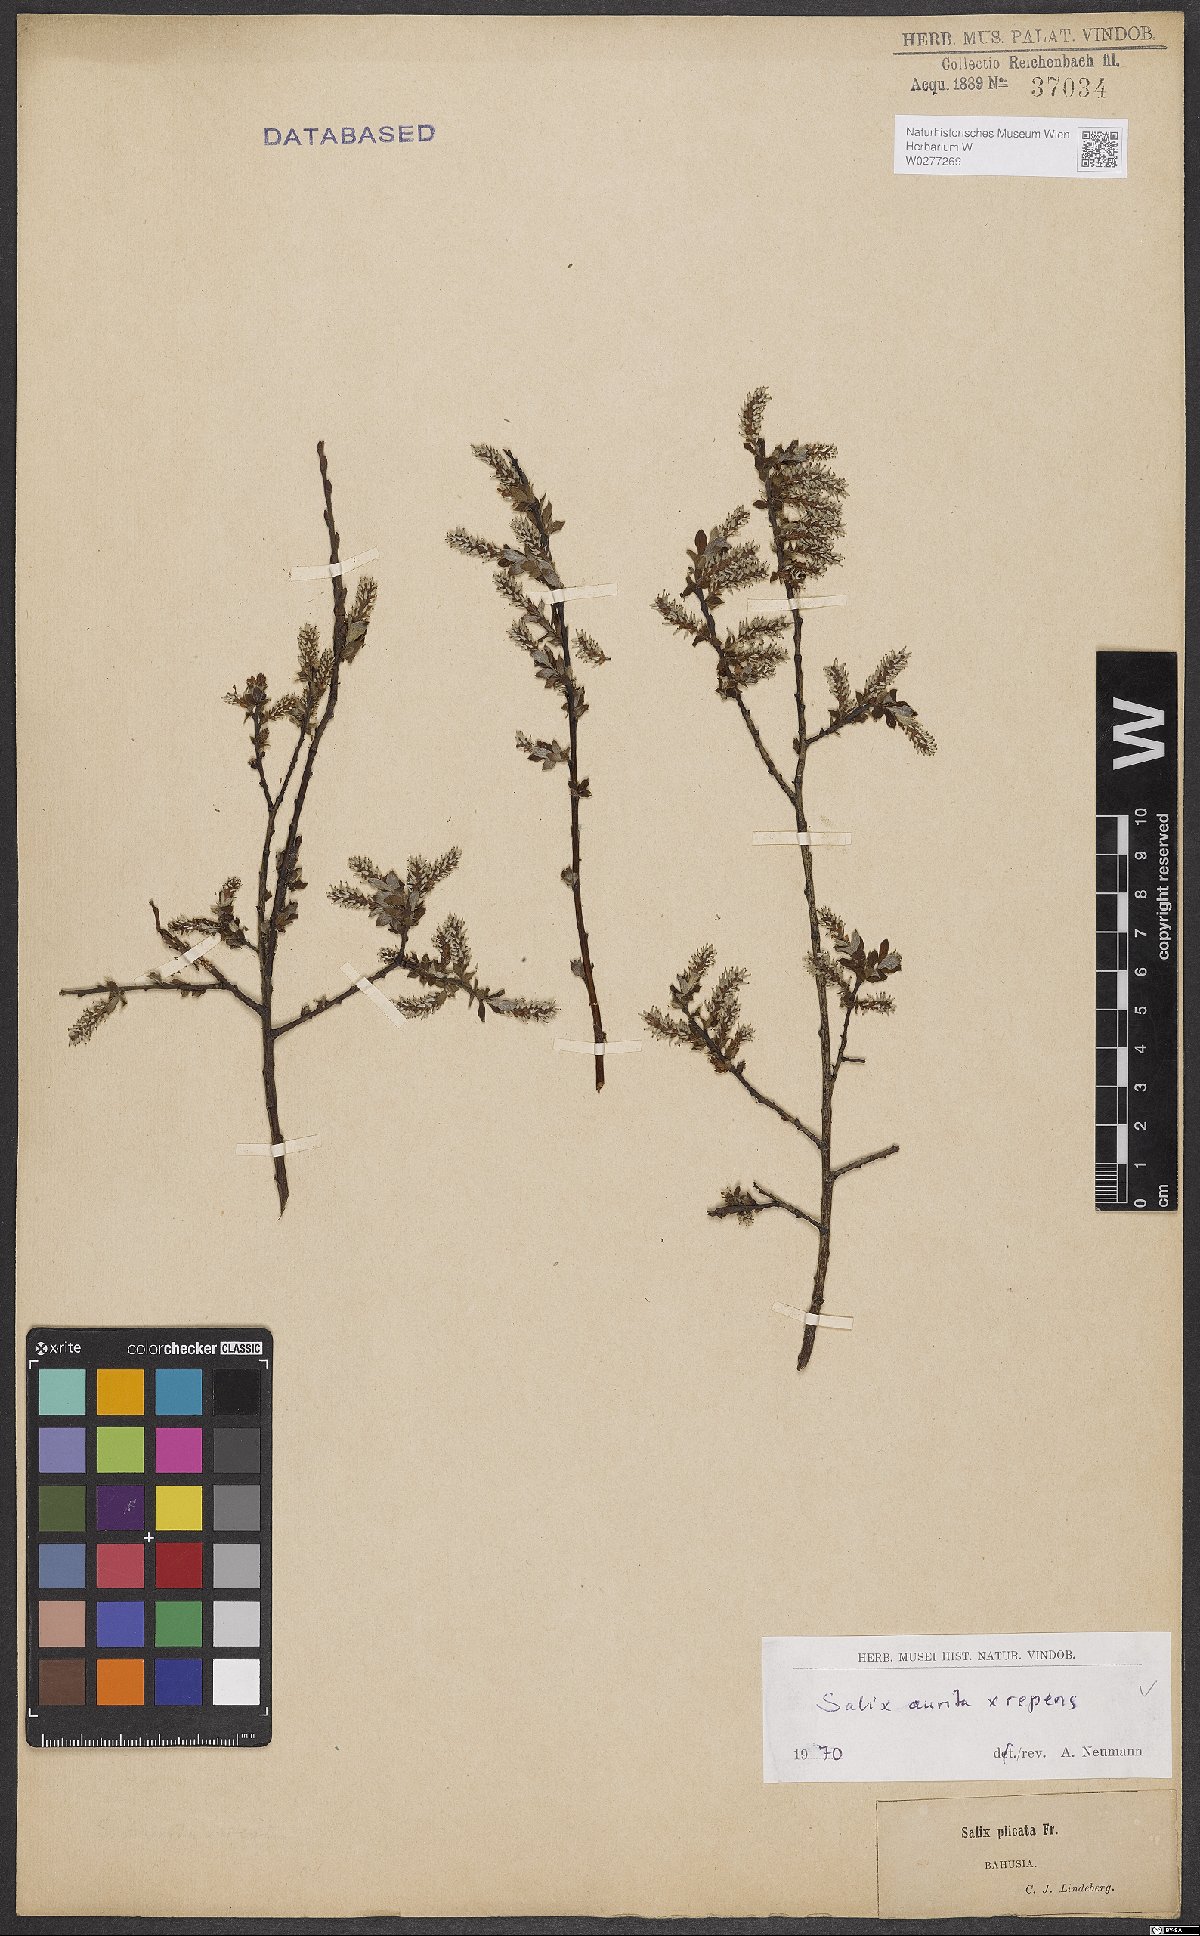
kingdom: Plantae
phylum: Tracheophyta
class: Magnoliopsida
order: Malpighiales
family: Salicaceae
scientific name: Salicaceae
